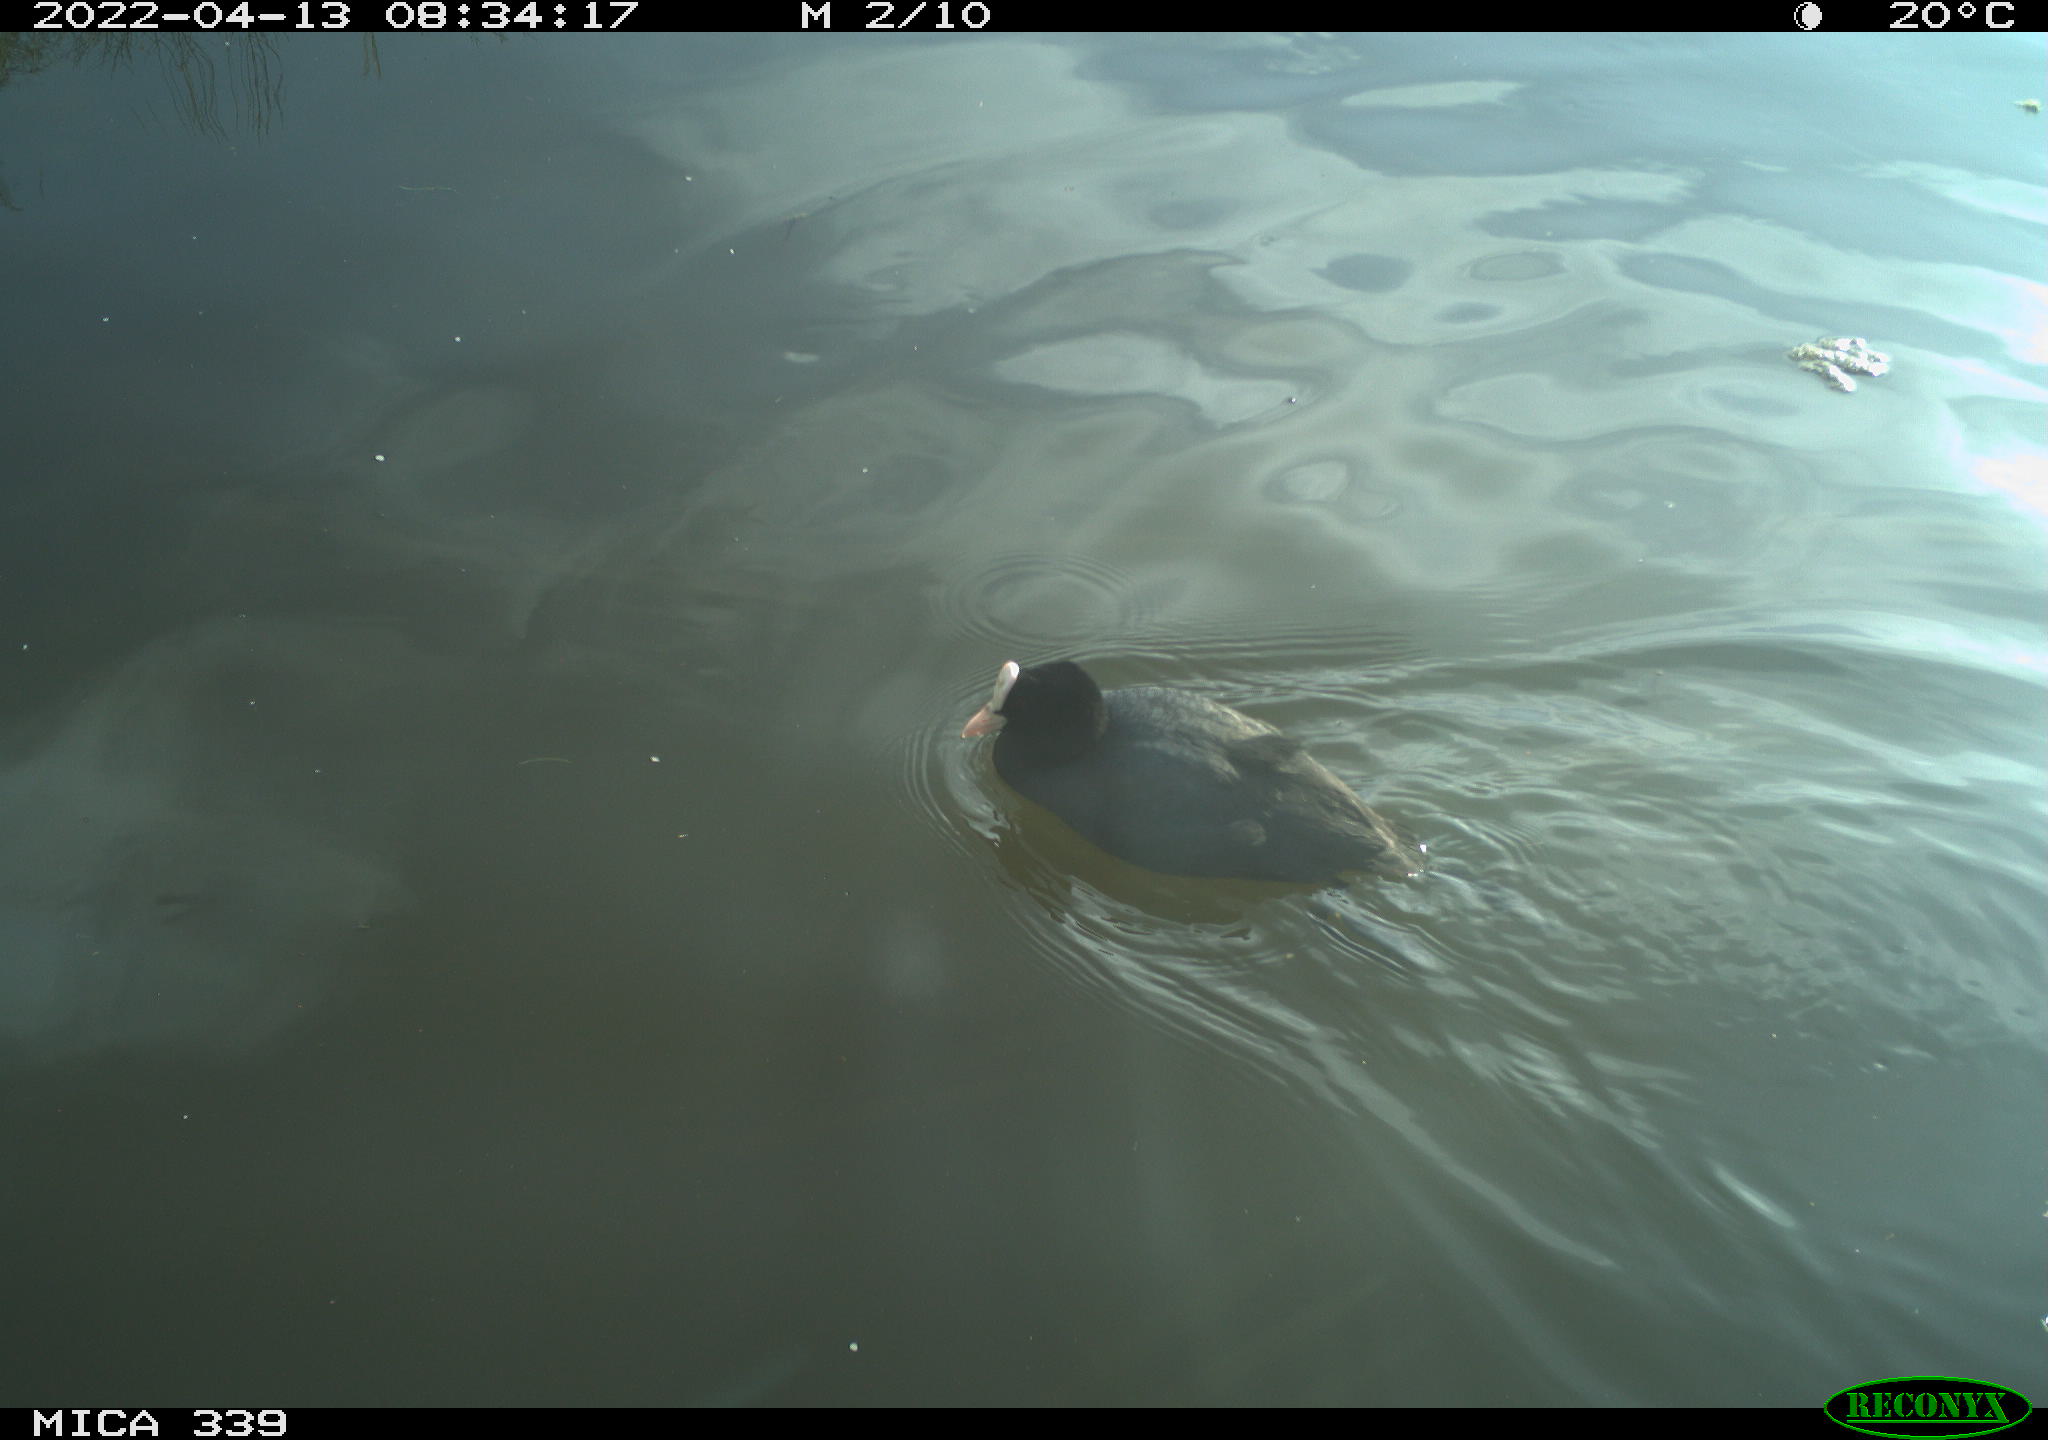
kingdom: Animalia
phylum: Chordata
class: Aves
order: Gruiformes
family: Rallidae
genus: Fulica
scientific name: Fulica atra
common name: Eurasian coot
